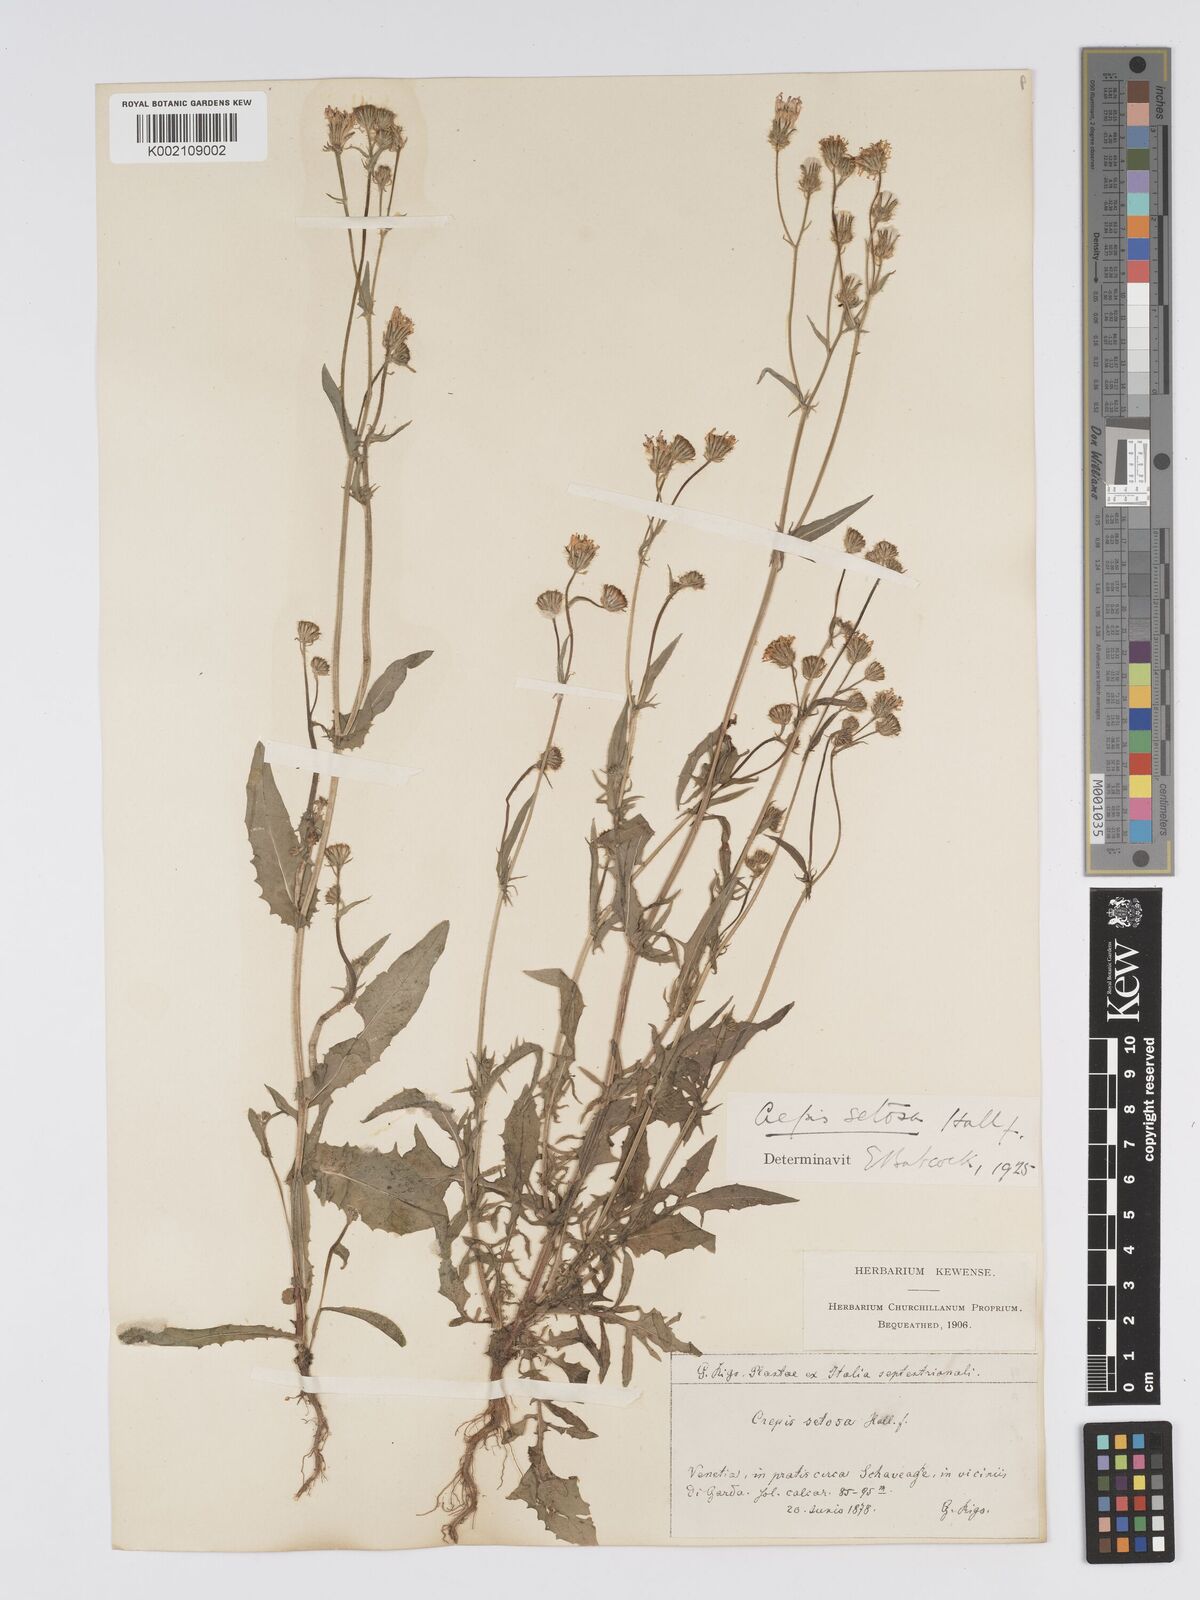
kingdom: Plantae
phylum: Tracheophyta
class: Magnoliopsida
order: Asterales
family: Asteraceae
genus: Crepis
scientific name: Crepis setosa
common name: Bristly hawk's-beard
